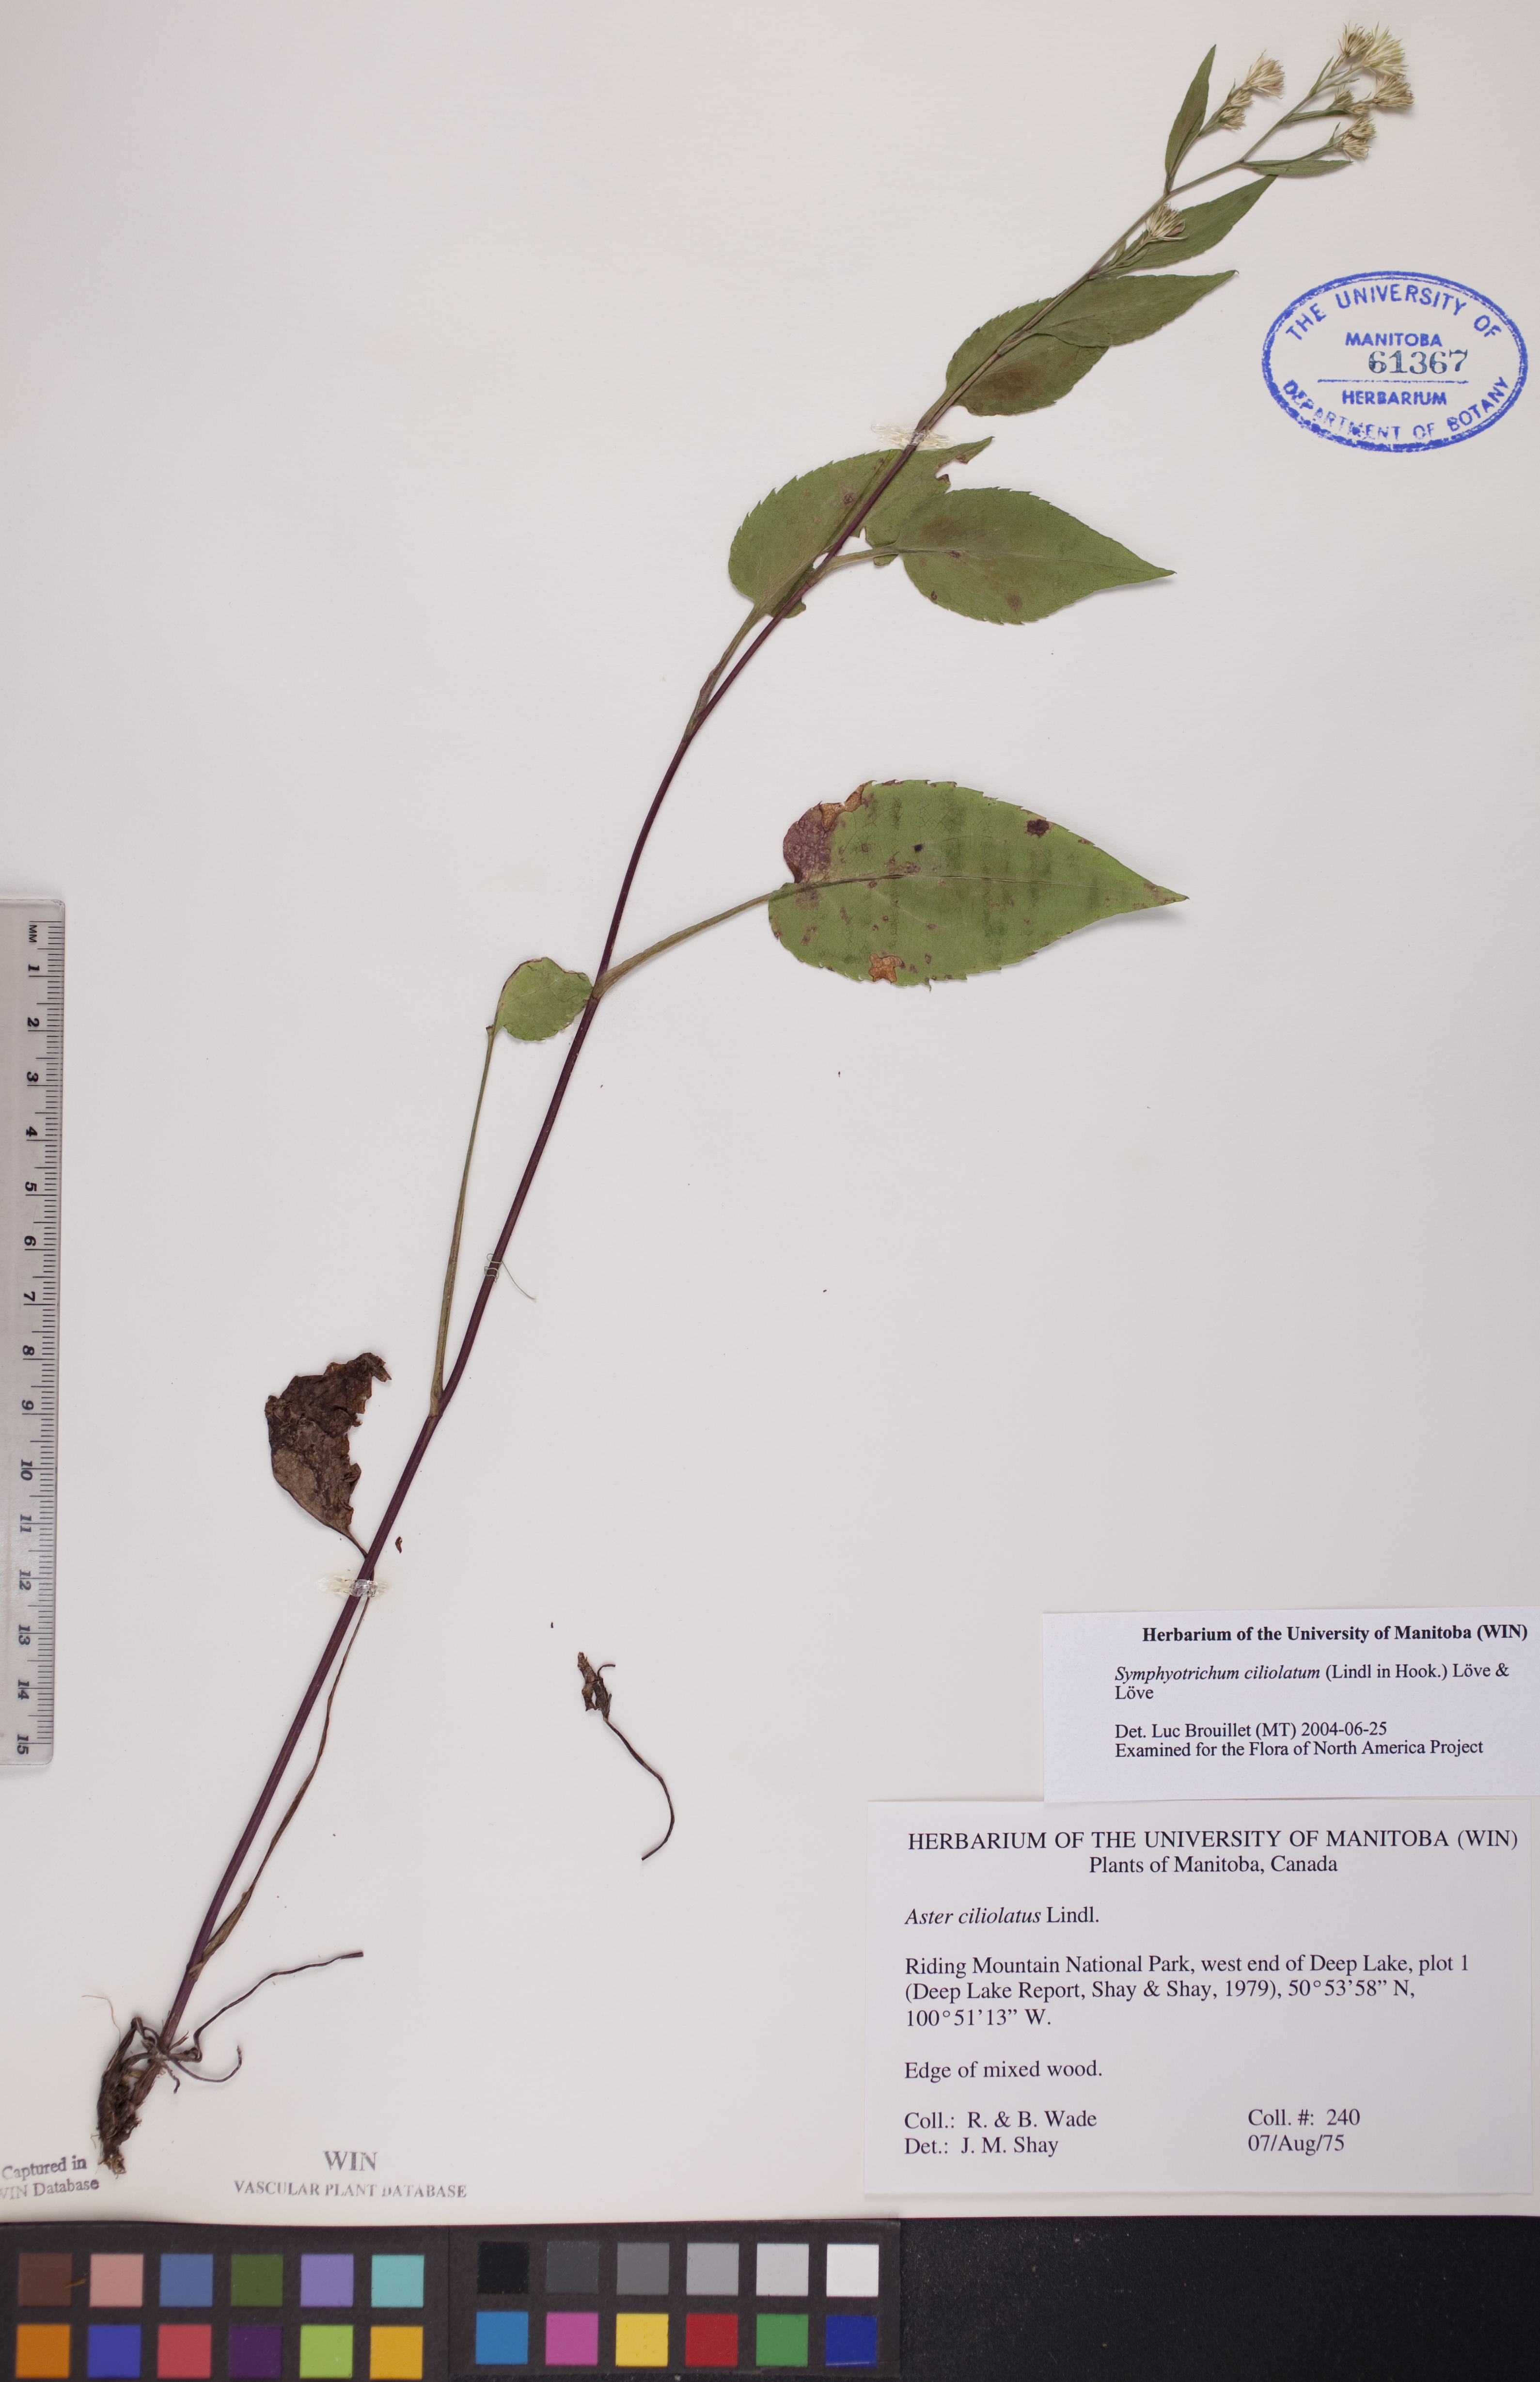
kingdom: Plantae
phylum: Tracheophyta
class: Magnoliopsida
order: Asterales
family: Asteraceae
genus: Symphyotrichum
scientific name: Symphyotrichum ciliolatum
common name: Fringed blue aster
